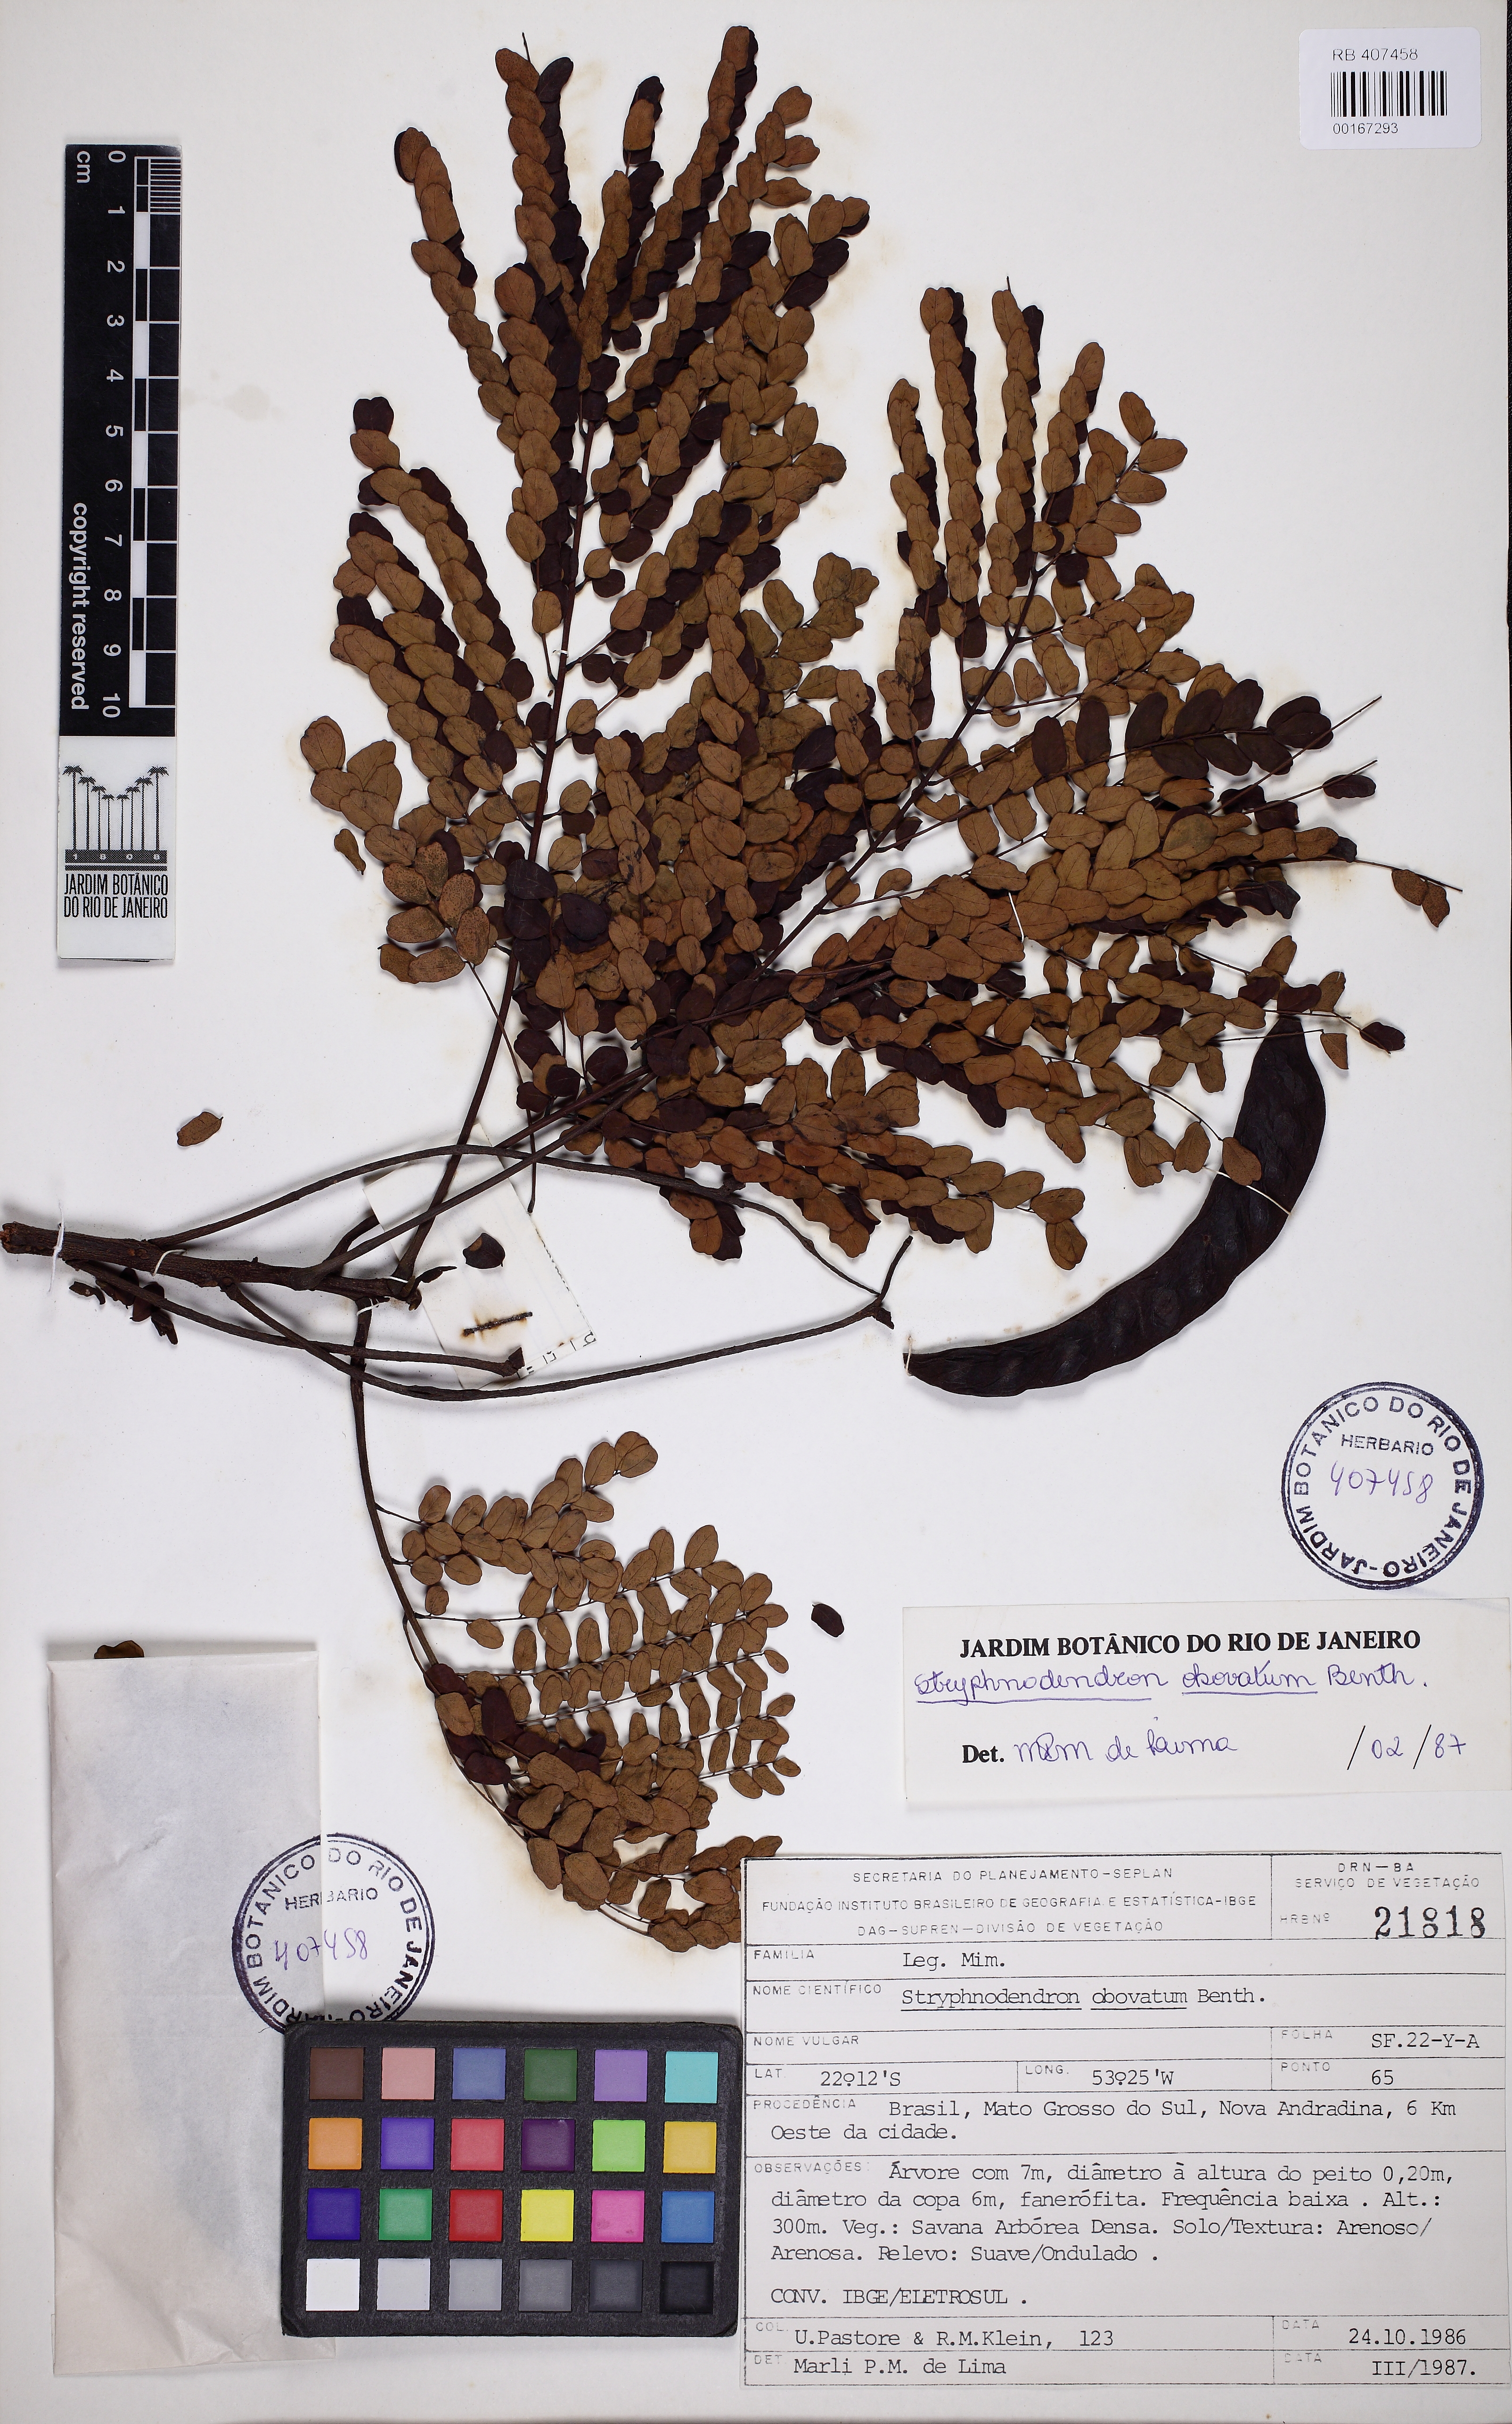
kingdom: Plantae
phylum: Tracheophyta
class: Magnoliopsida
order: Fabales
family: Fabaceae
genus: Stryphnodendron
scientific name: Stryphnodendron rotundifolium
